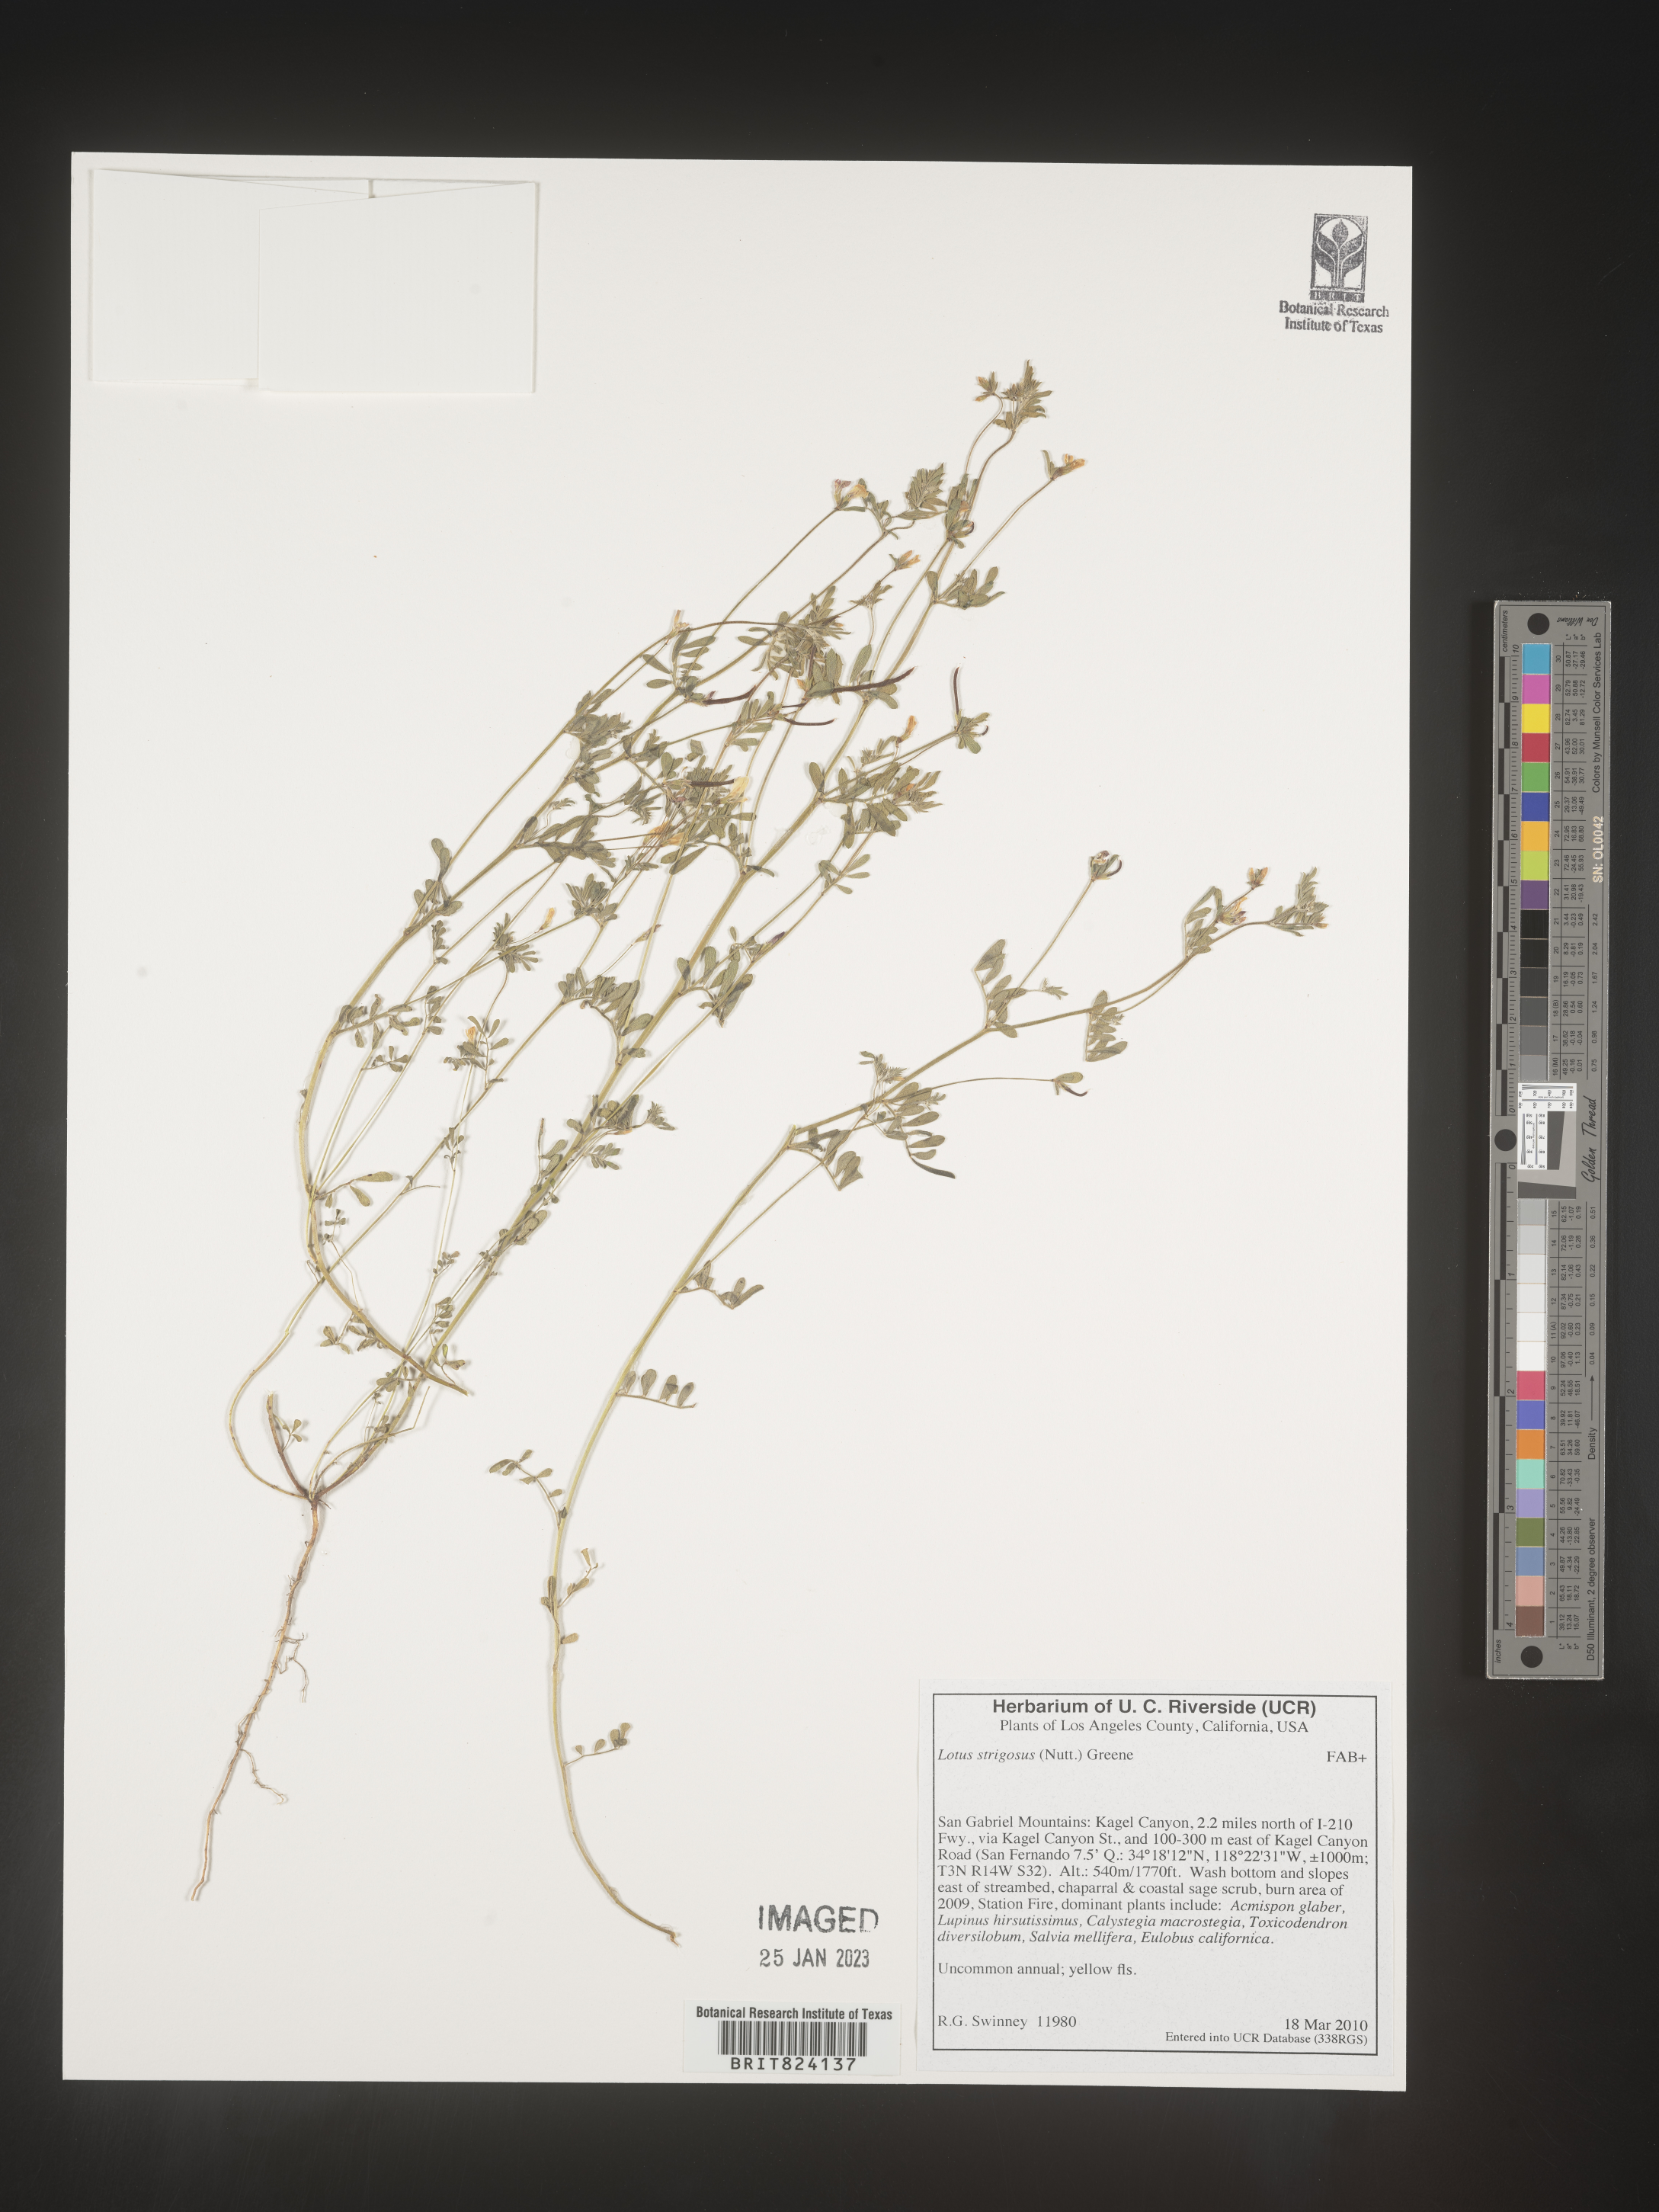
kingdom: Plantae
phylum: Tracheophyta
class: Magnoliopsida
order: Fabales
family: Fabaceae
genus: Lotus
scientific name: Lotus
